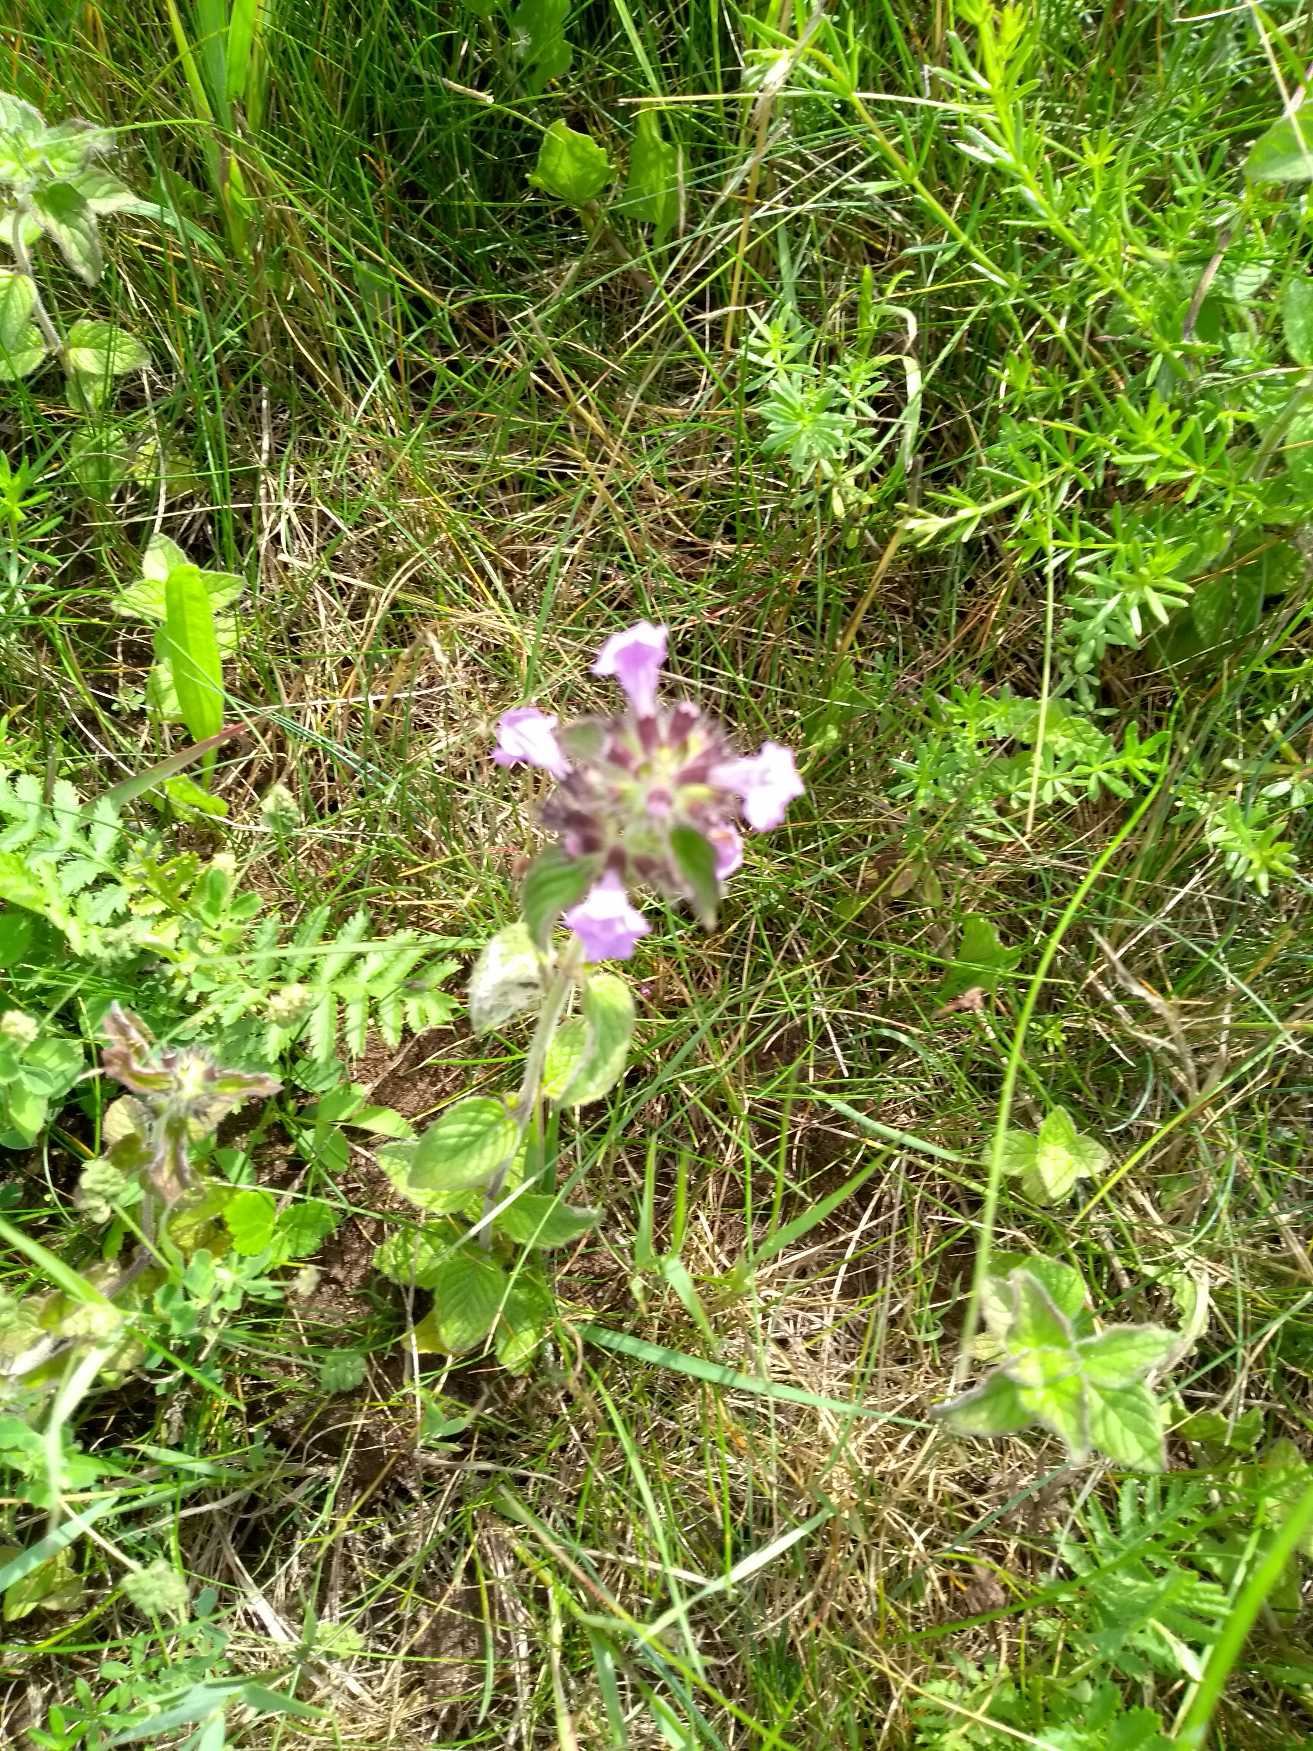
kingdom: Plantae
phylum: Tracheophyta
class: Magnoliopsida
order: Lamiales
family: Lamiaceae
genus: Clinopodium
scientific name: Clinopodium vulgare
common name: Kransbørste
